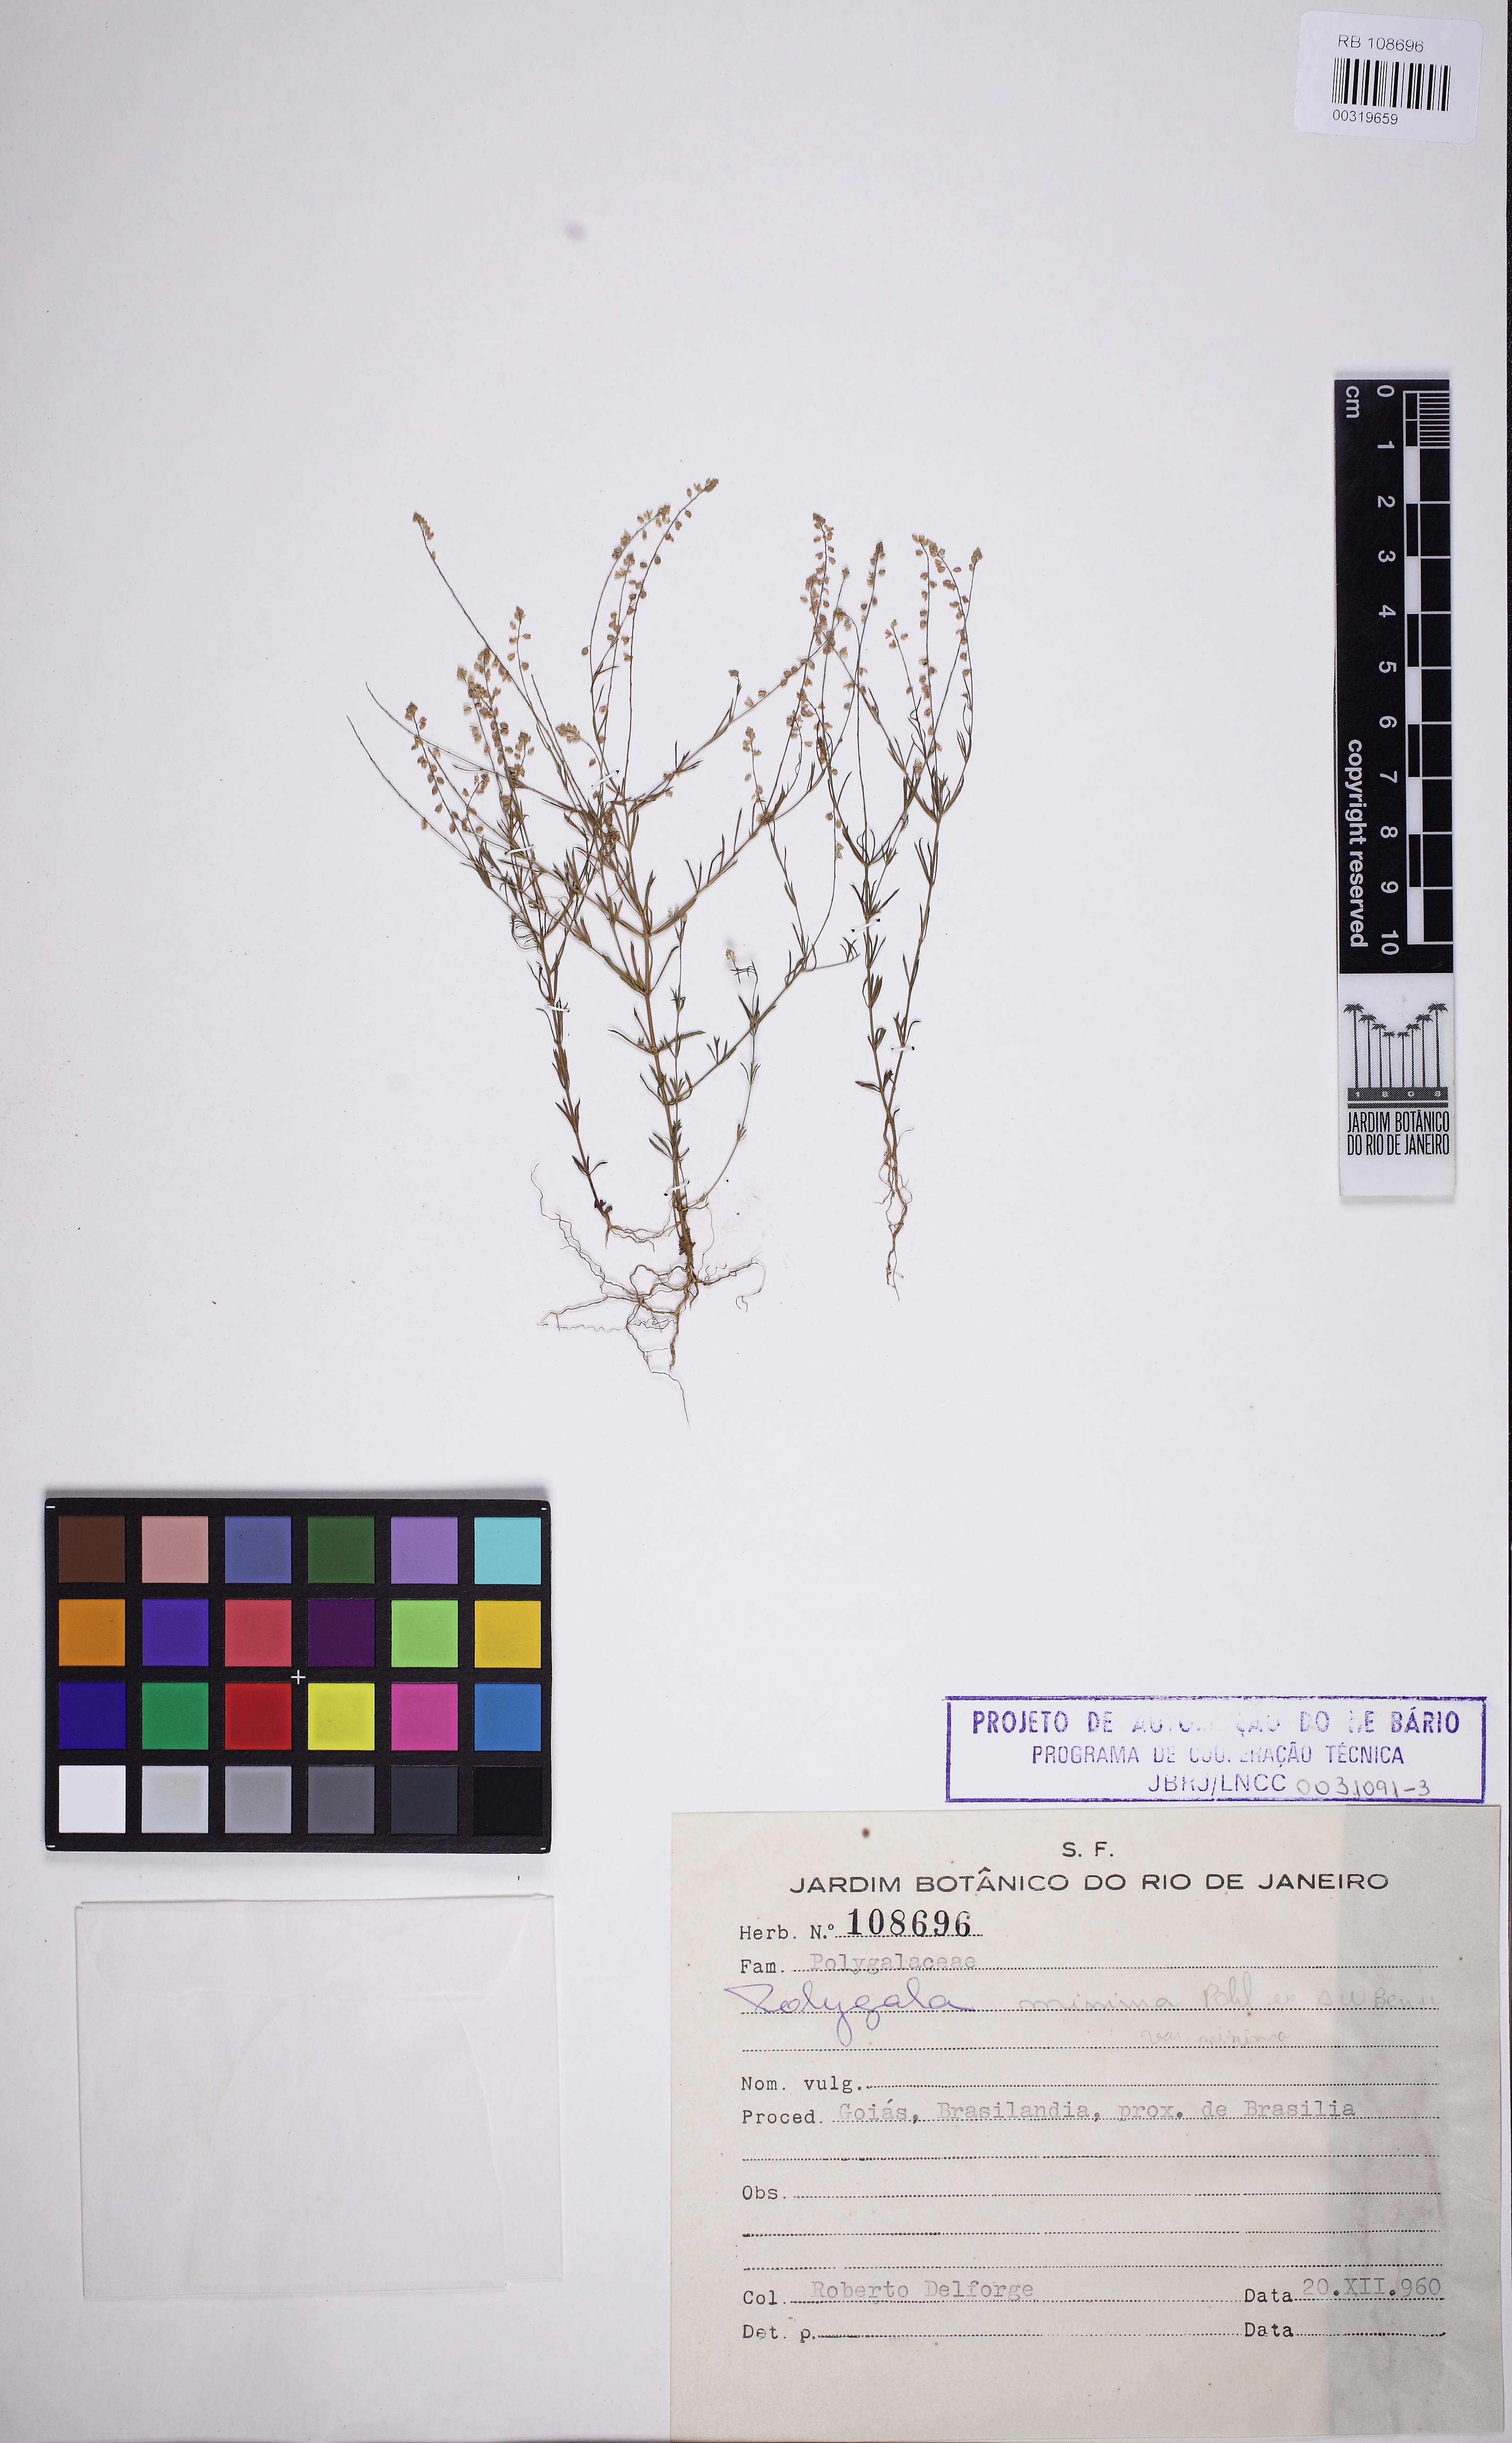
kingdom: Plantae
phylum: Tracheophyta
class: Magnoliopsida
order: Fabales
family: Polygalaceae
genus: Polygala
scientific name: Polygala glochidiata
